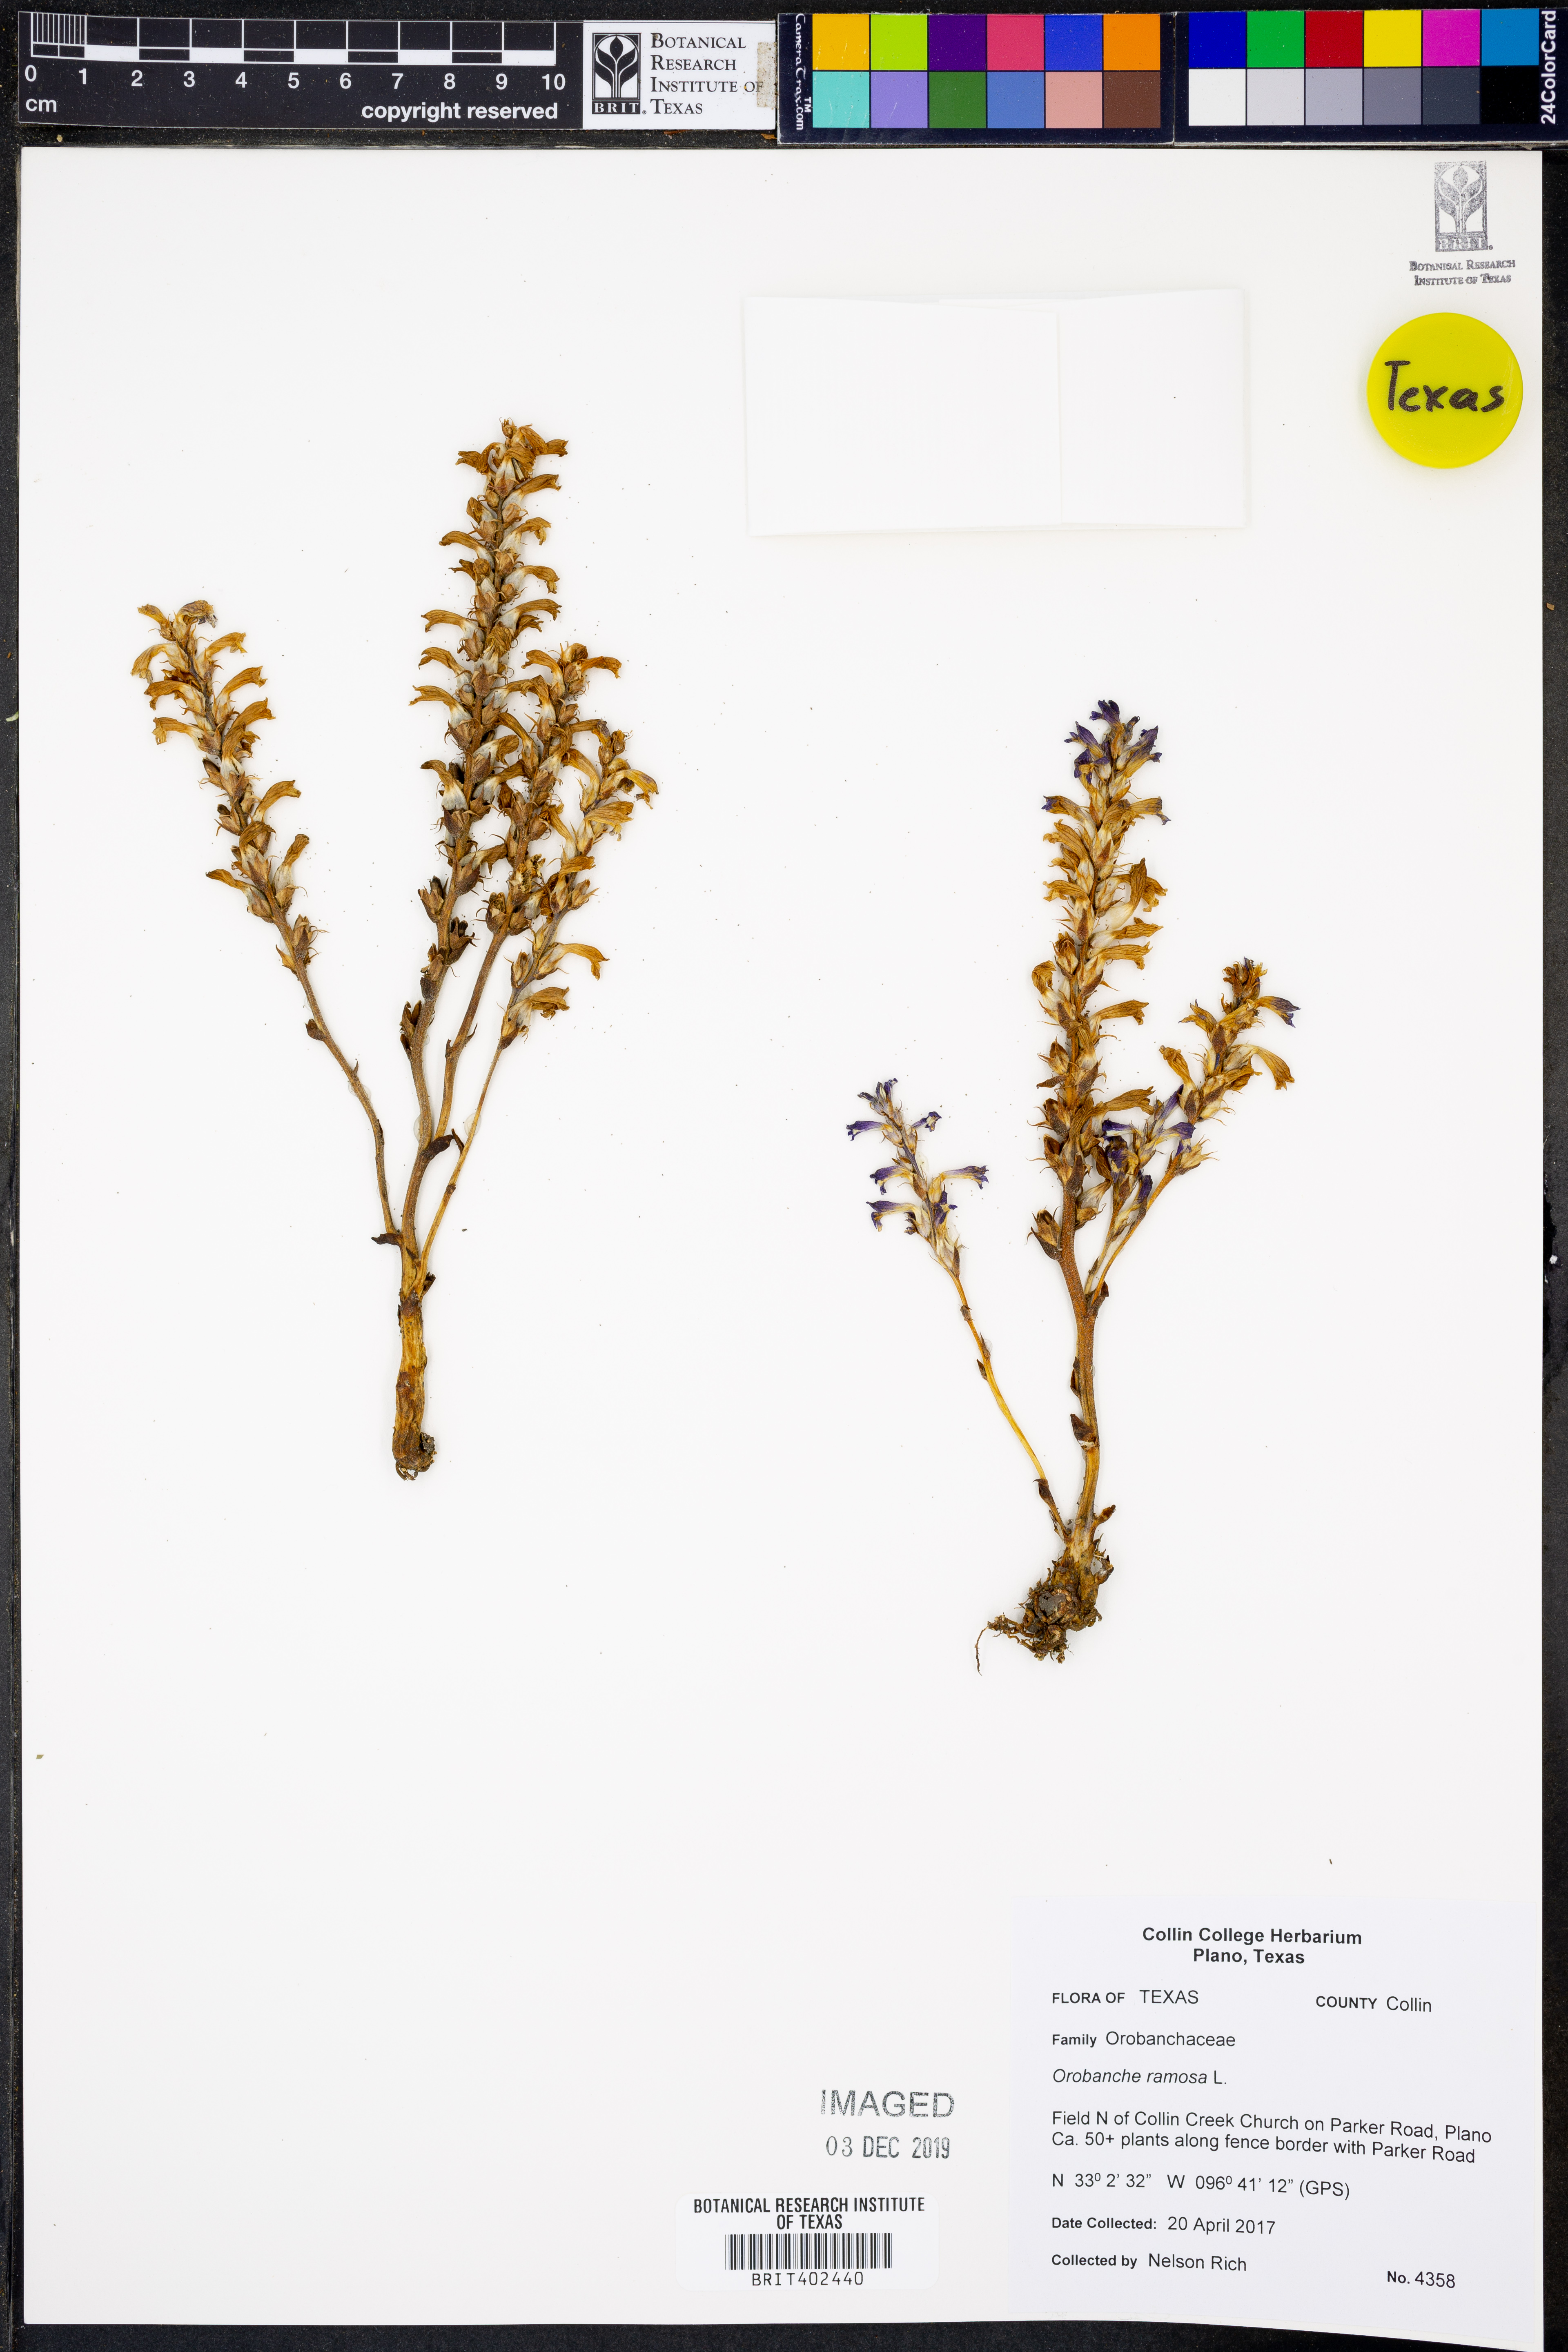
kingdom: Plantae
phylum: Tracheophyta
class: Magnoliopsida
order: Lamiales
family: Orobanchaceae
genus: Phelipanche
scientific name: Phelipanche ramosa
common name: Branched broomrape
